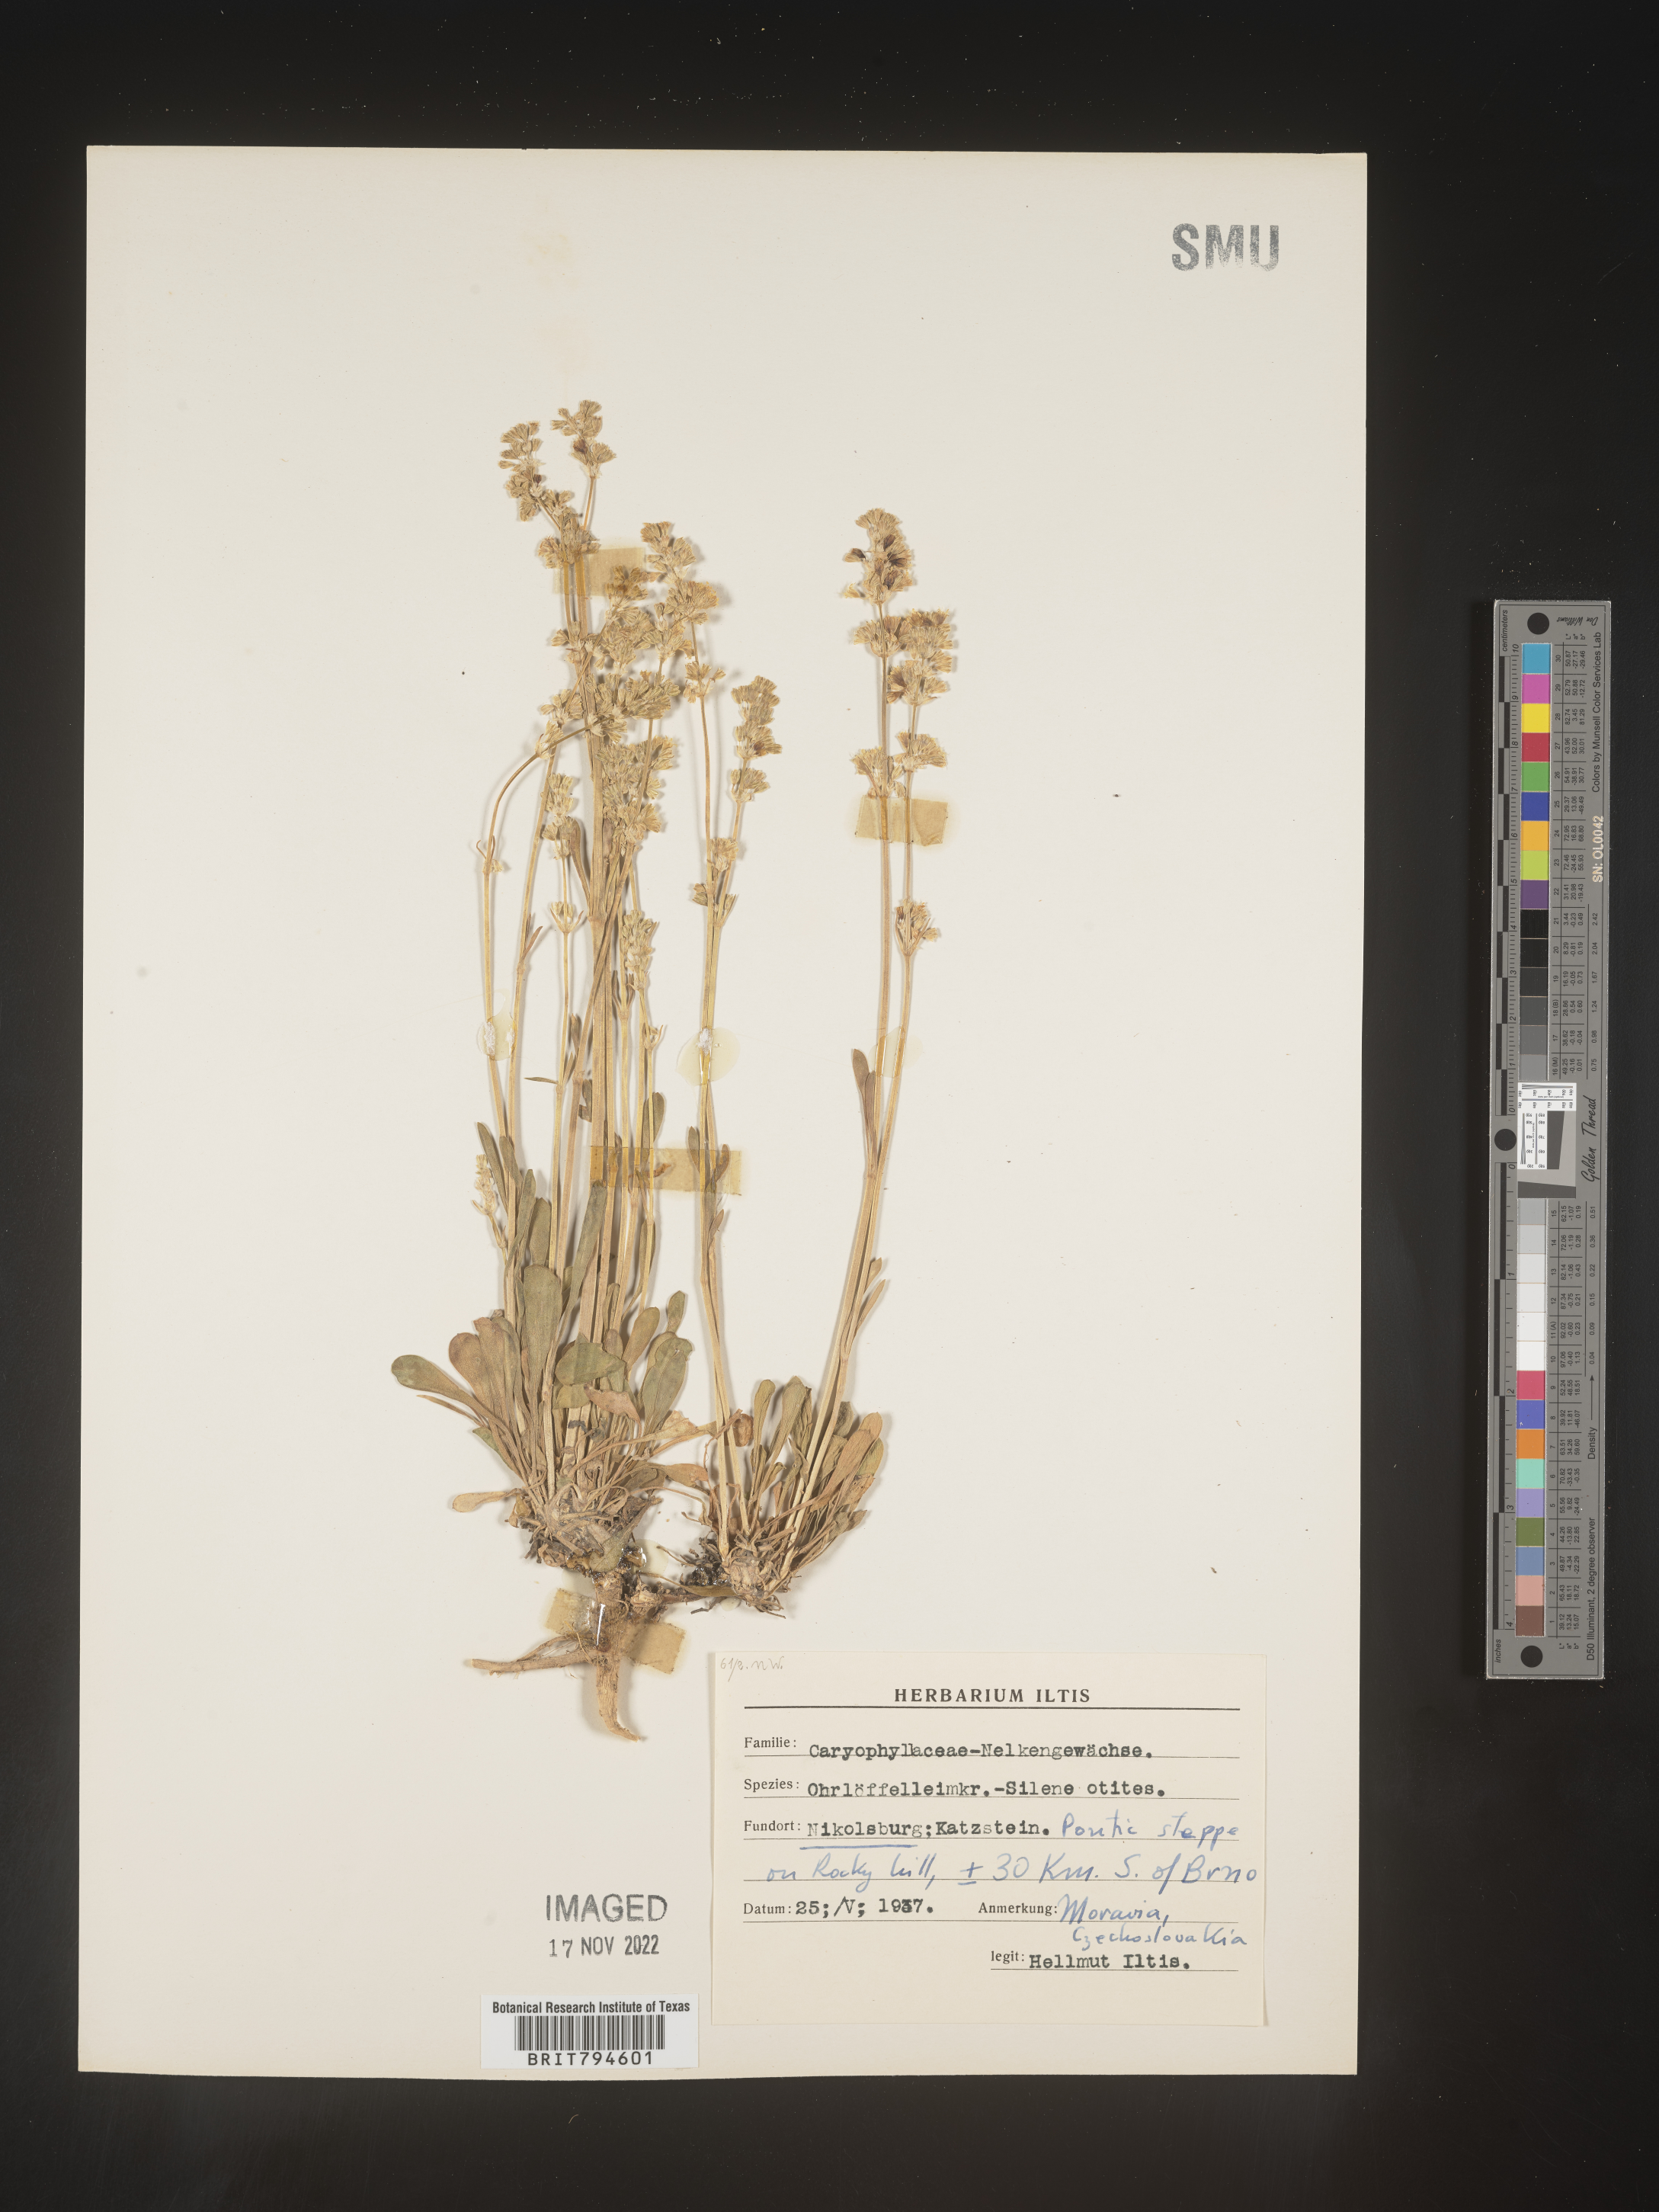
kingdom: Plantae
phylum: Tracheophyta
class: Magnoliopsida
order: Caryophyllales
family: Caryophyllaceae
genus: Silene
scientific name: Silene otites
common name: Spanish catchfly
